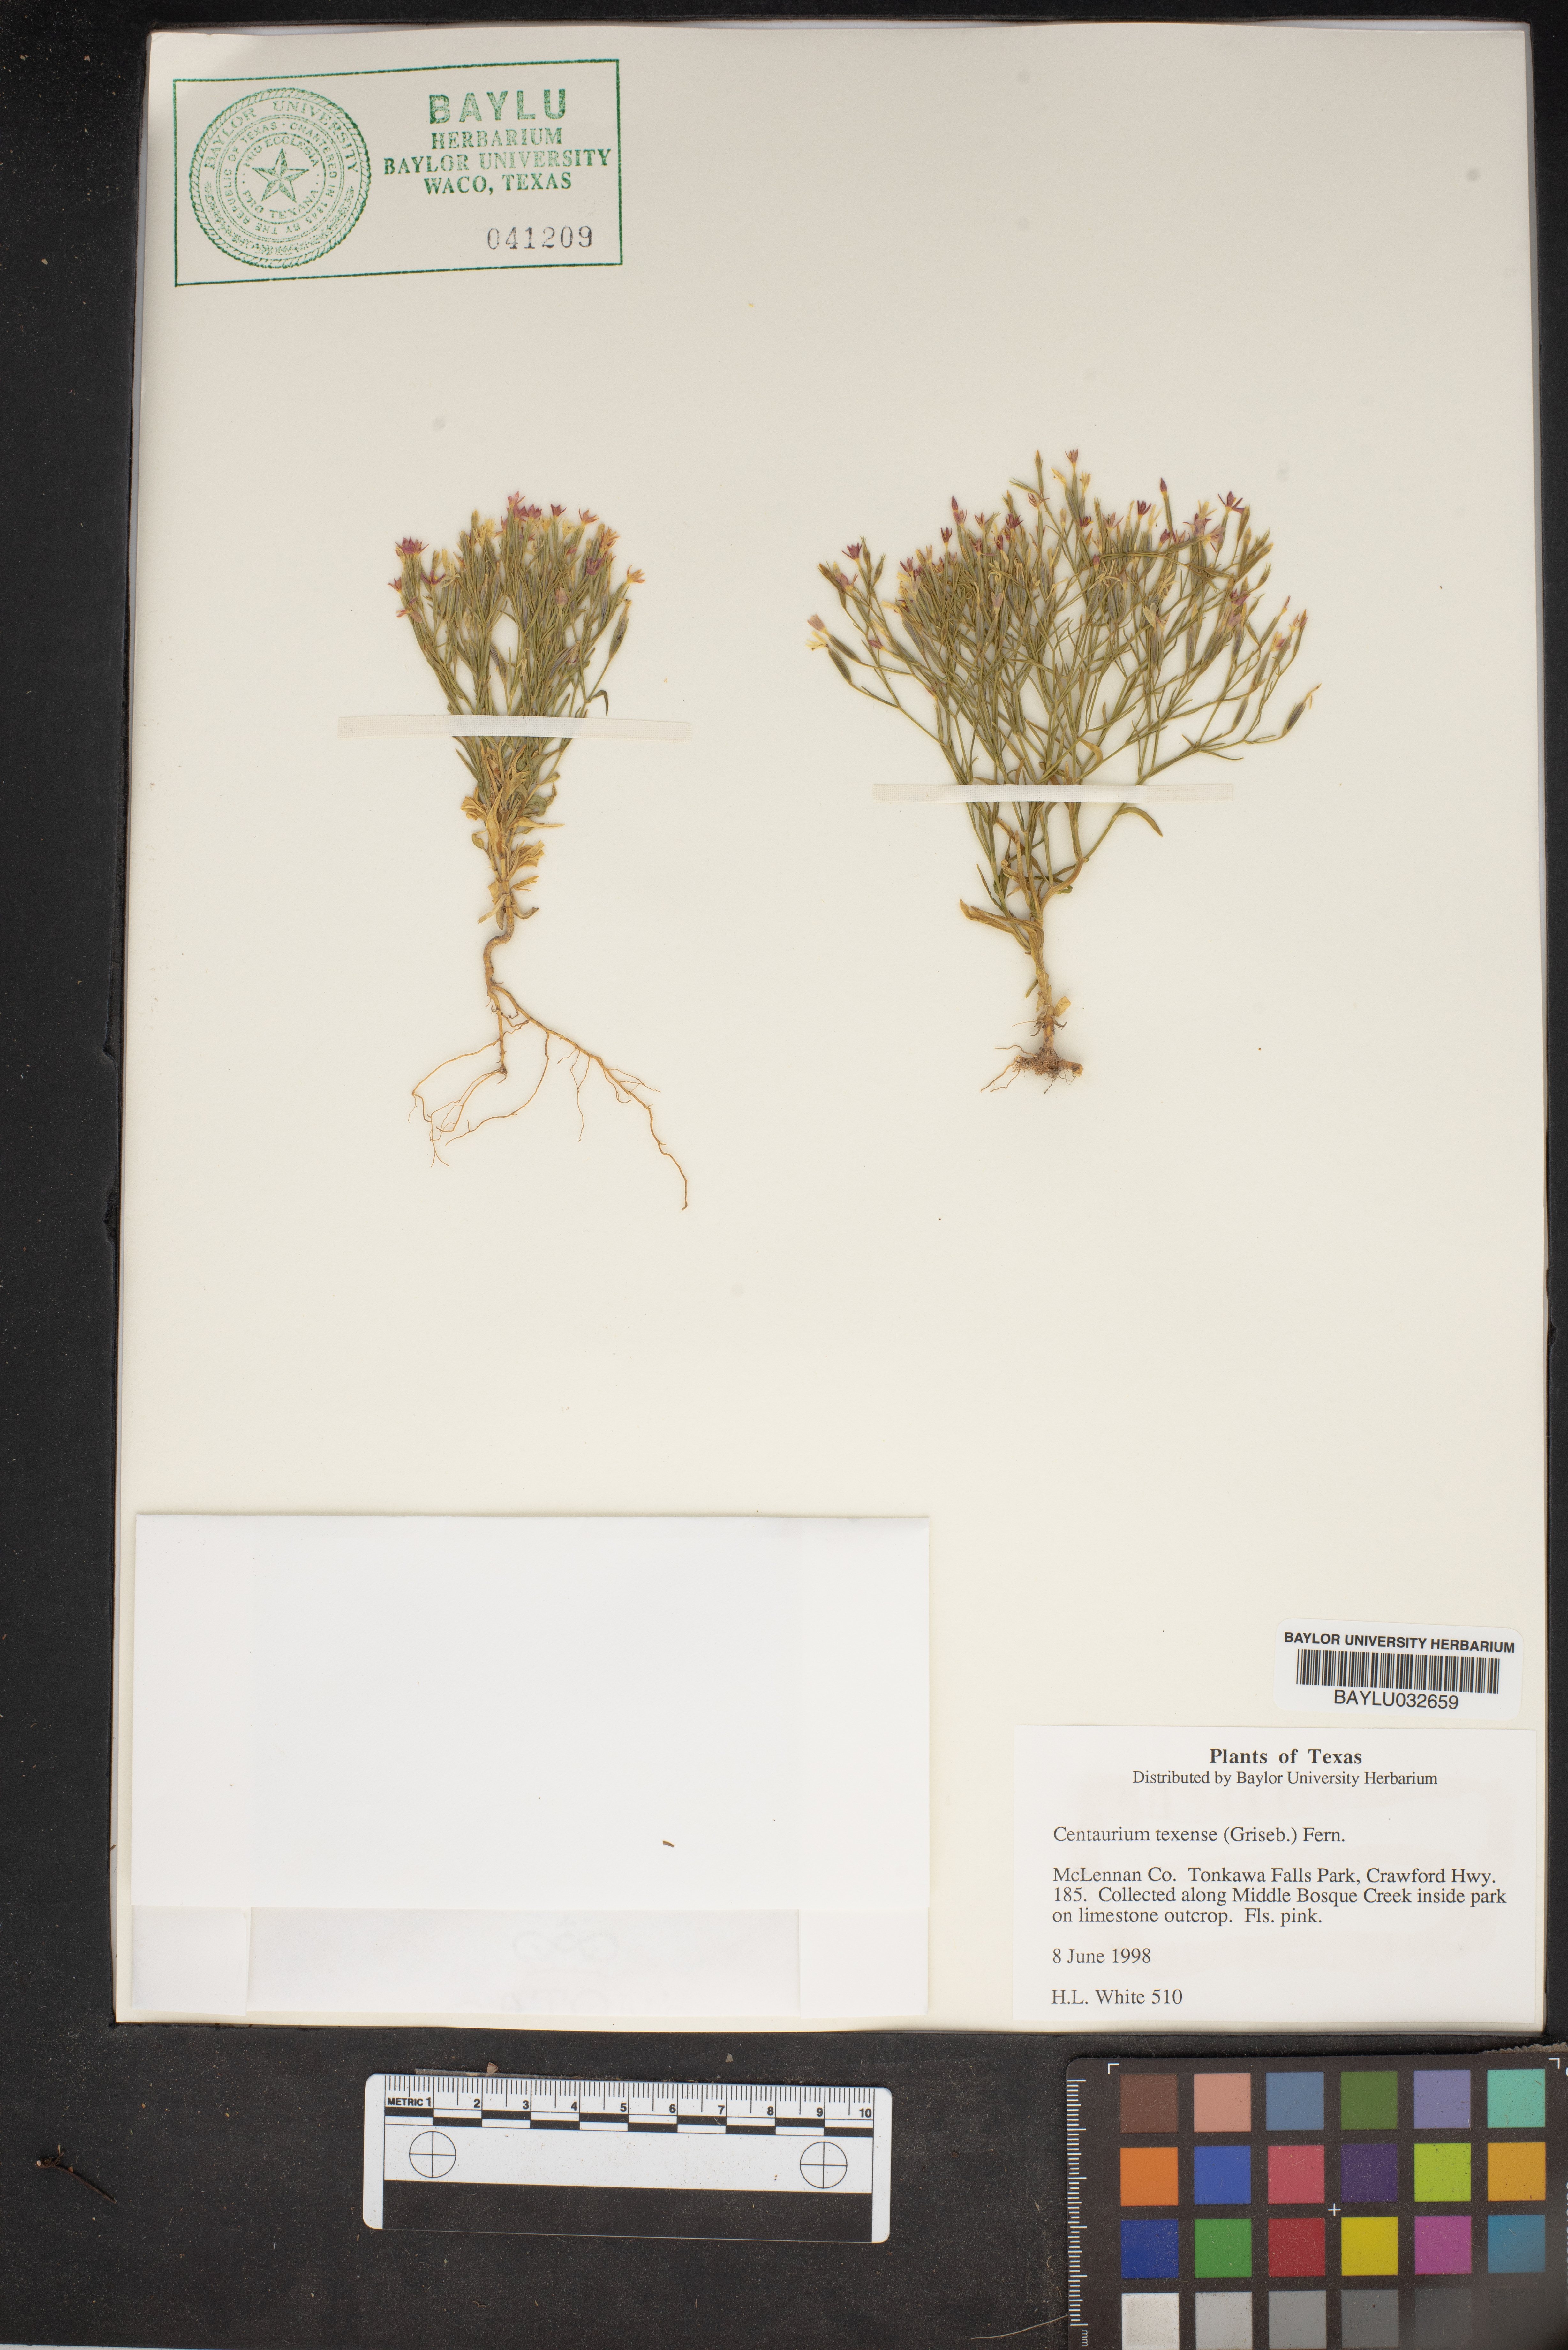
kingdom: Plantae
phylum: Tracheophyta
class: Magnoliopsida
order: Gentianales
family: Gentianaceae
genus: Zeltnera
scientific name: Zeltnera texensis
